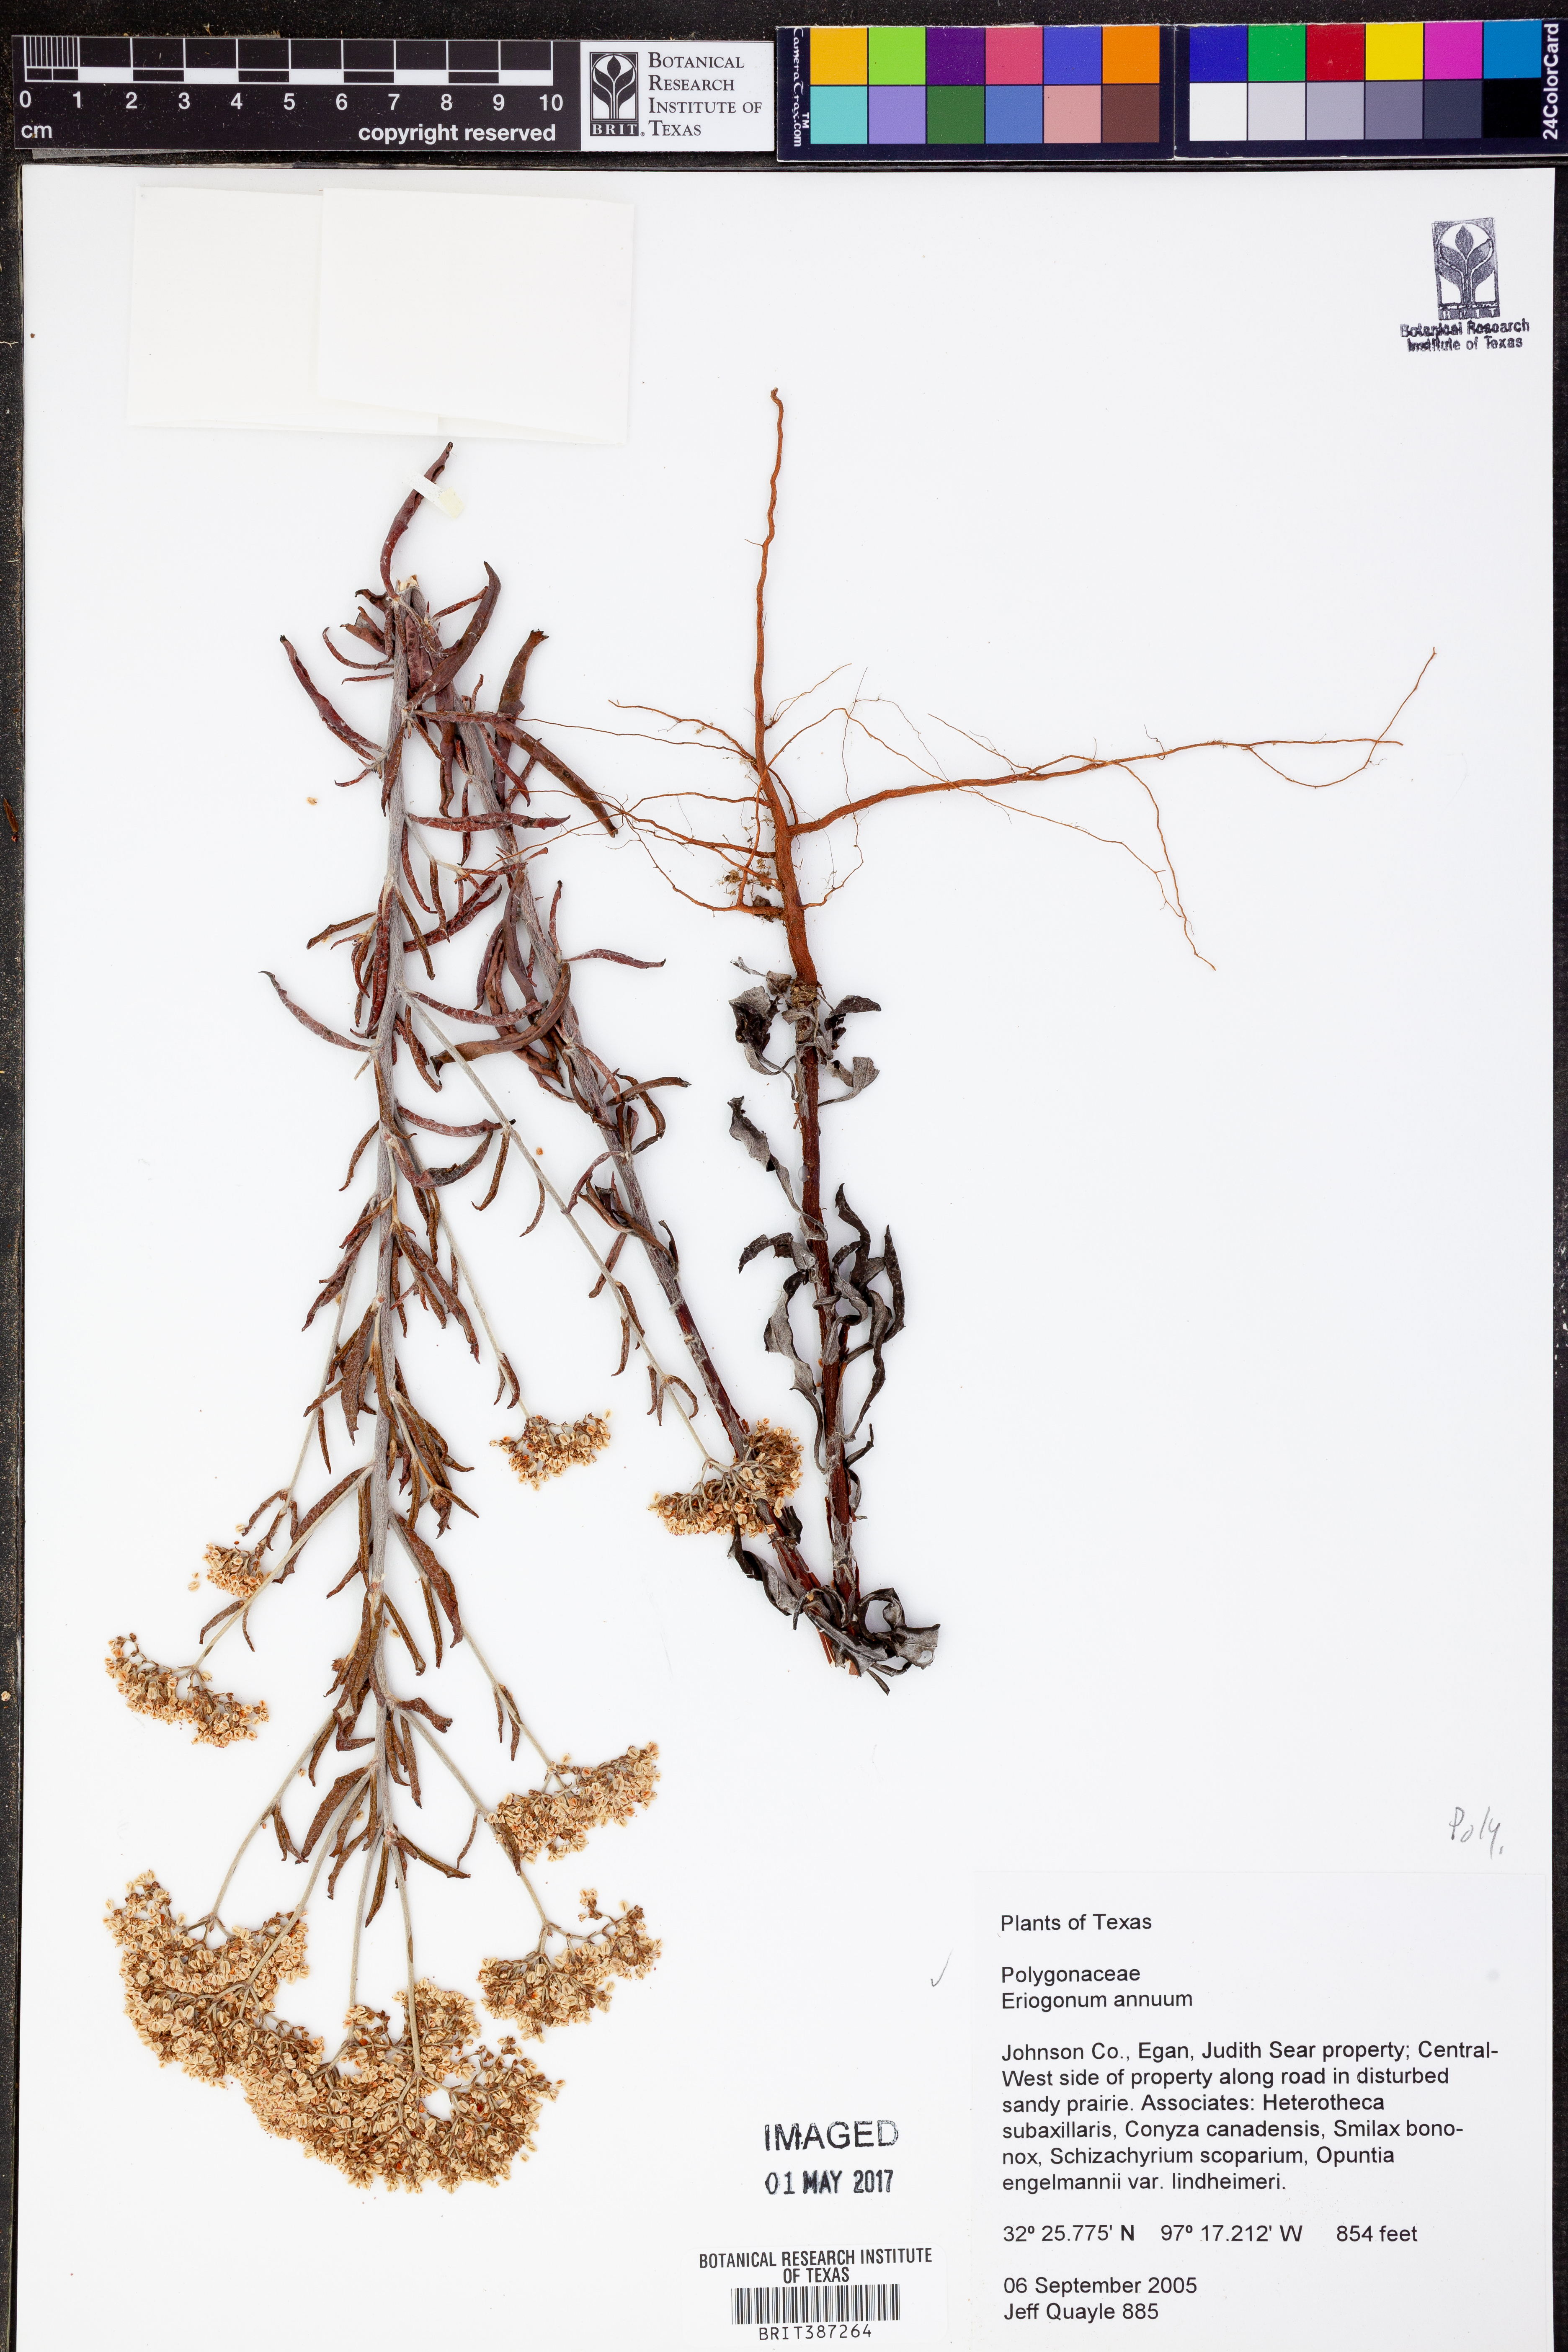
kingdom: Plantae
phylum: Tracheophyta
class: Magnoliopsida
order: Caryophyllales
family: Polygonaceae
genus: Eriogonum
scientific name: Eriogonum annuum
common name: Annual wild buckwheat
